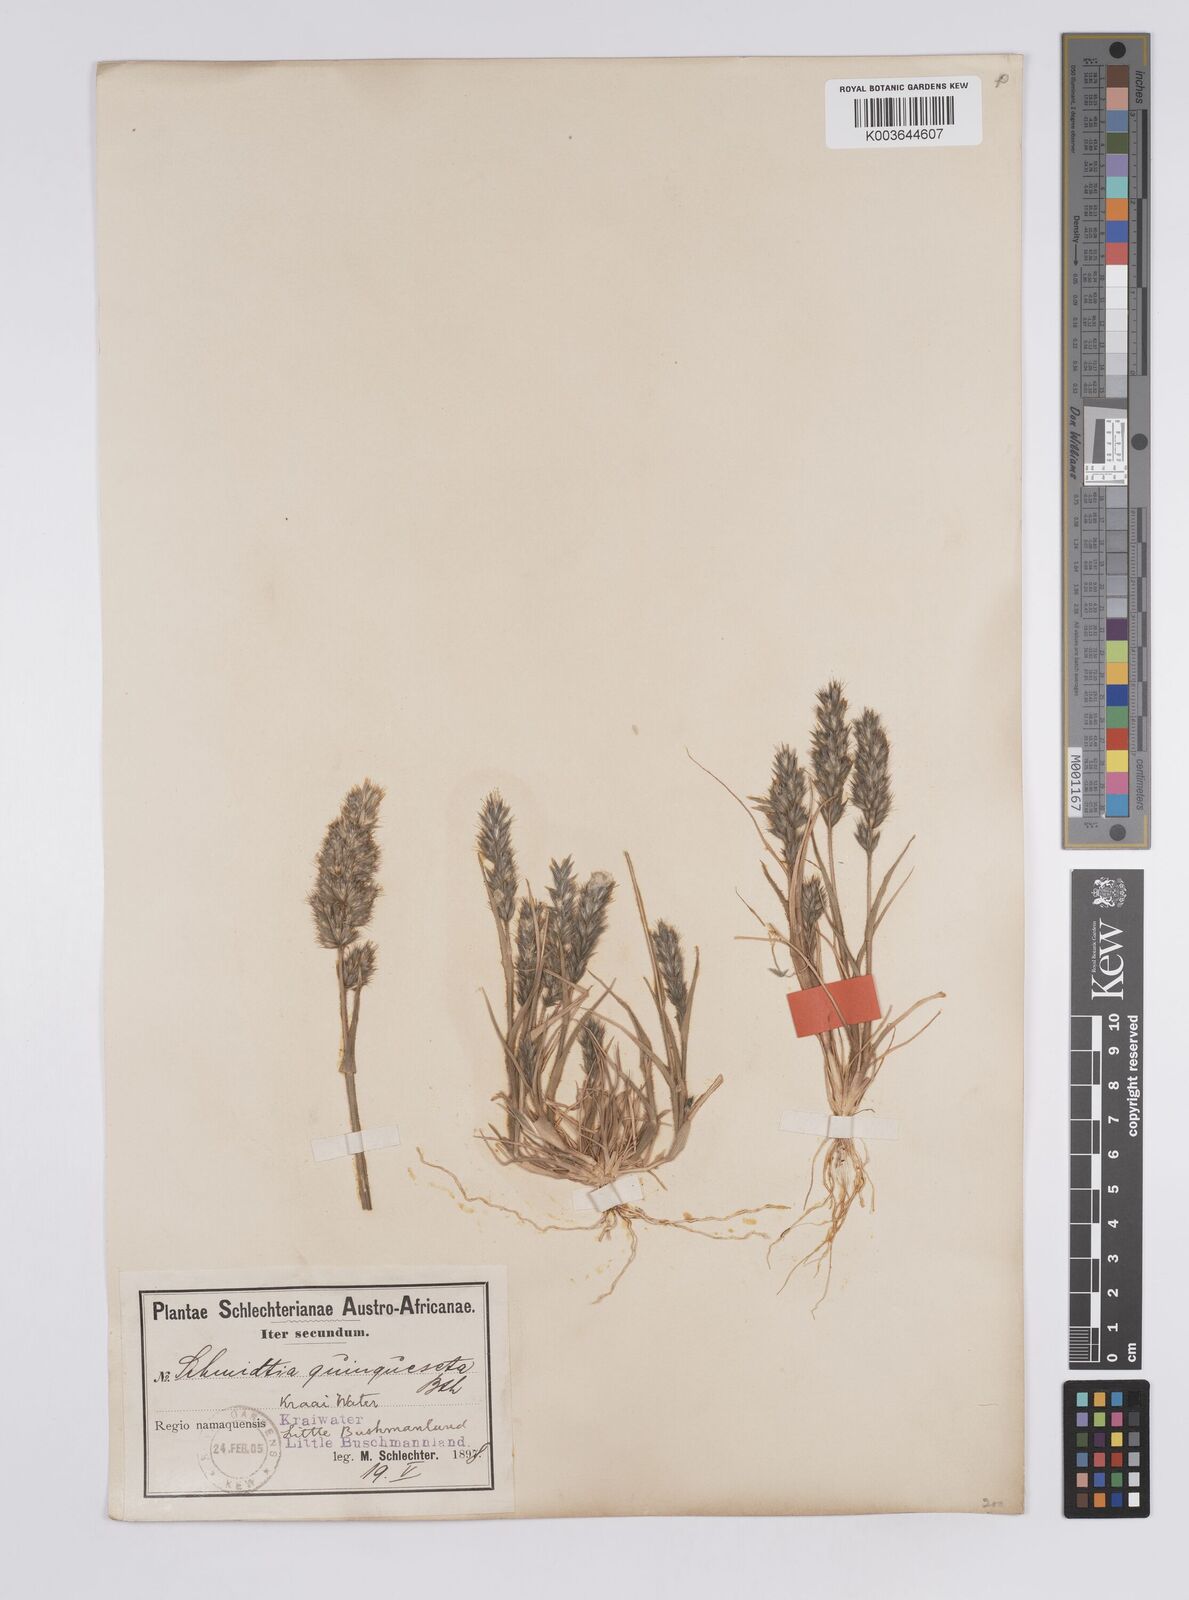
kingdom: Plantae
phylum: Tracheophyta
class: Liliopsida
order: Poales
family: Poaceae
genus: Schmidtia
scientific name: Schmidtia kalahariensis
